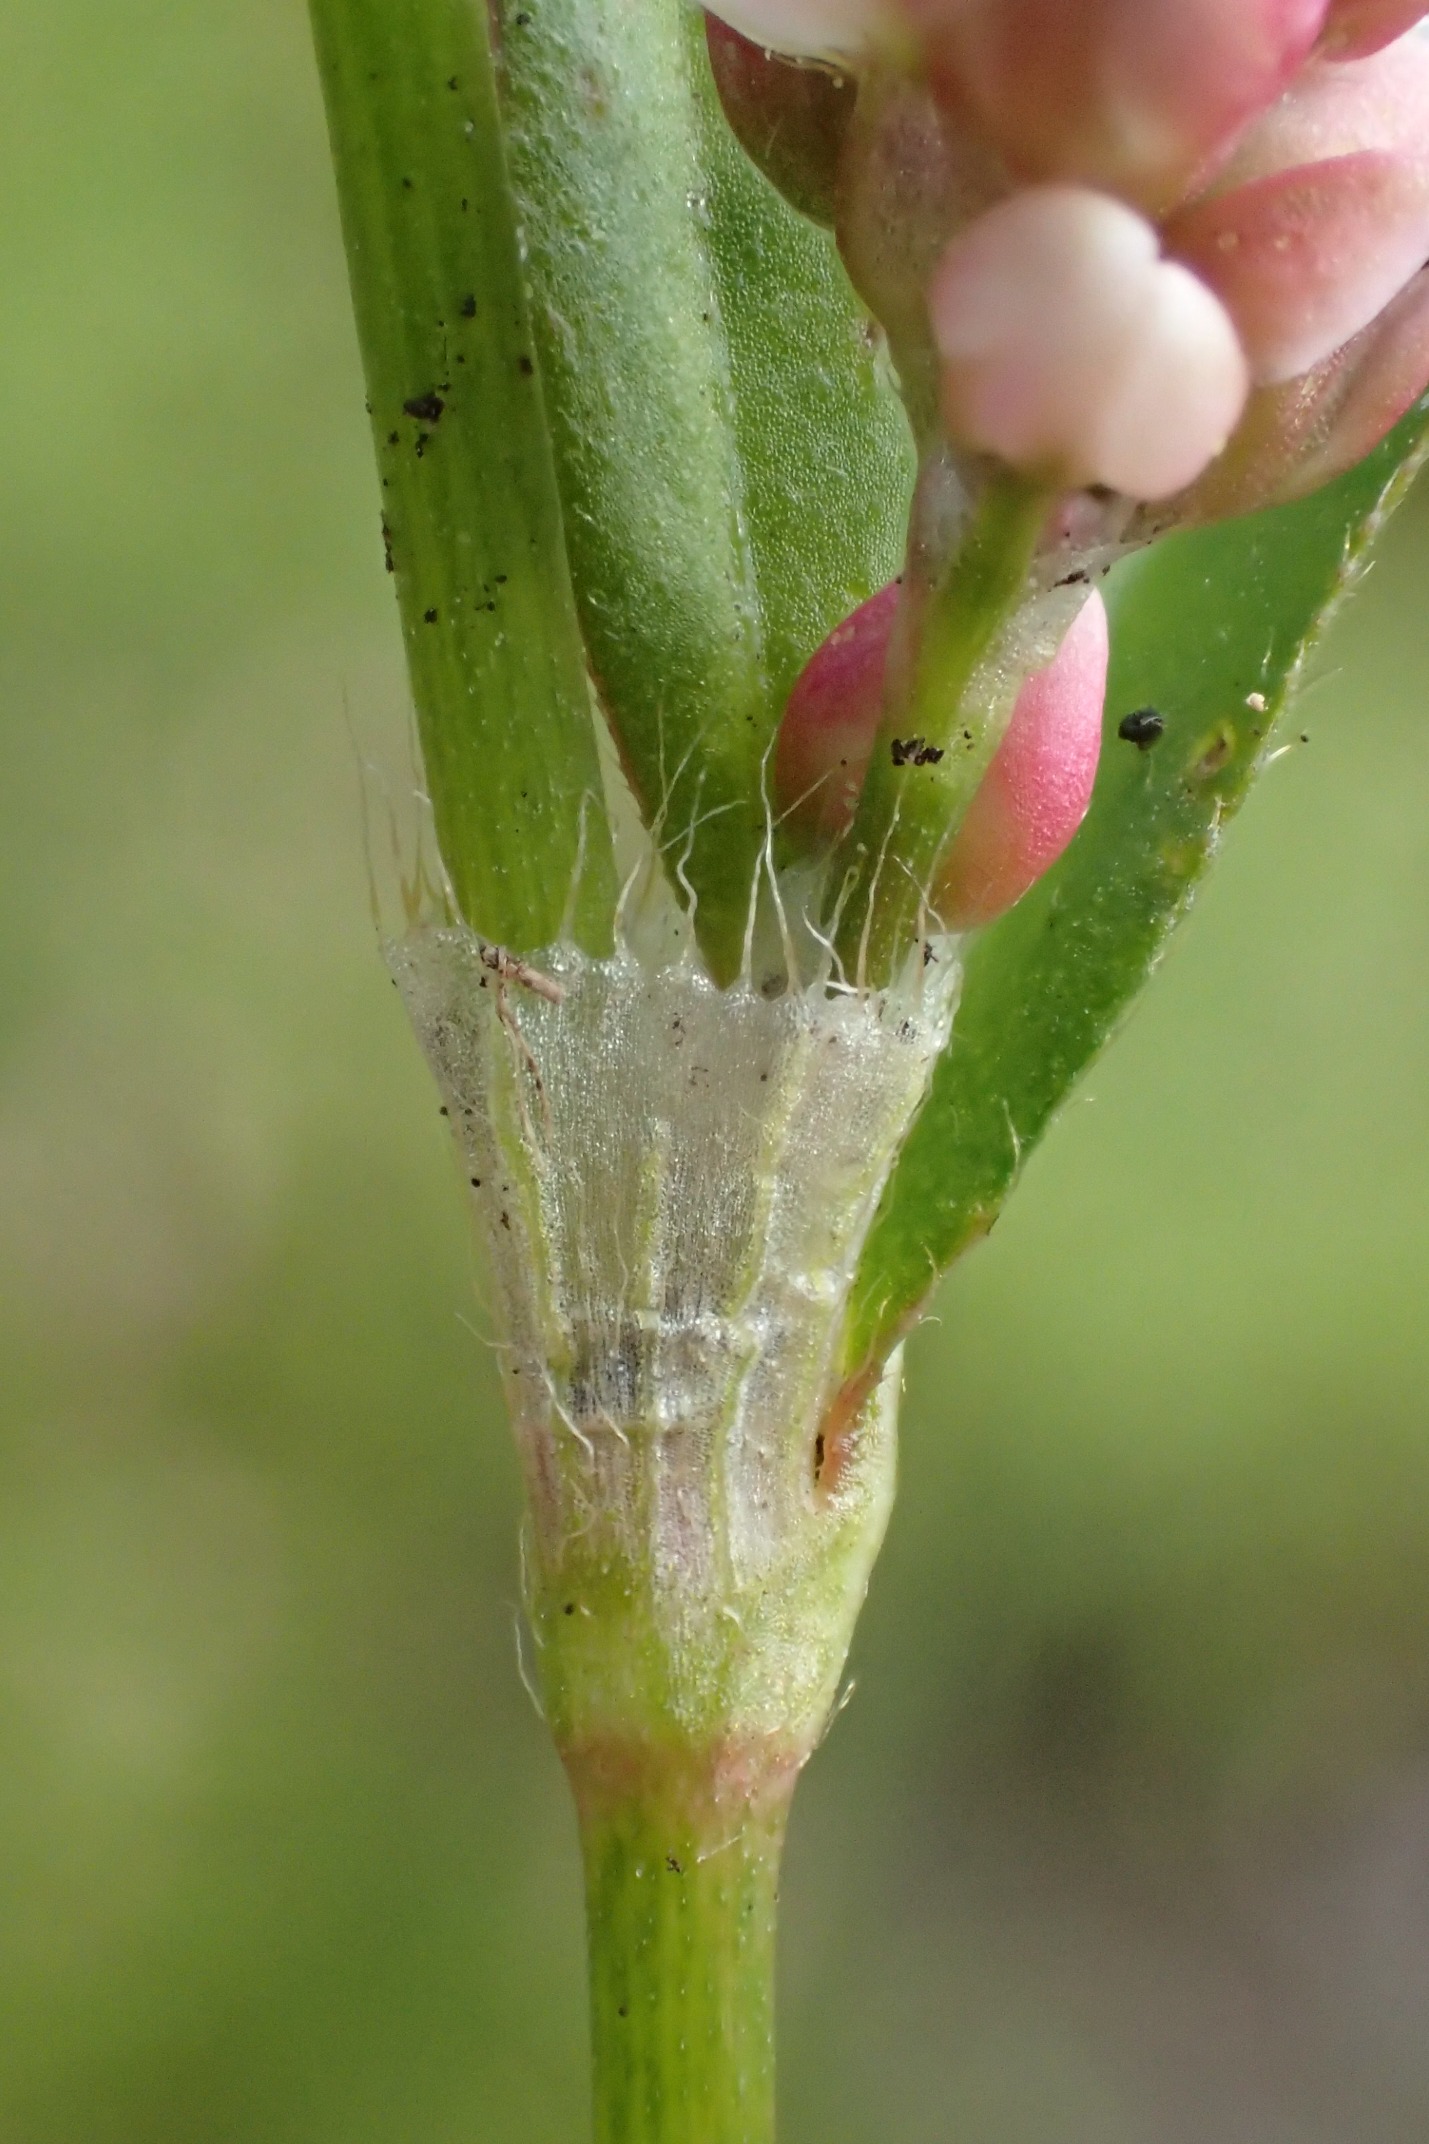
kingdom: Plantae
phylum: Tracheophyta
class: Magnoliopsida
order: Caryophyllales
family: Polygonaceae
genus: Persicaria
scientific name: Persicaria maculosa
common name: Fersken-pileurt
